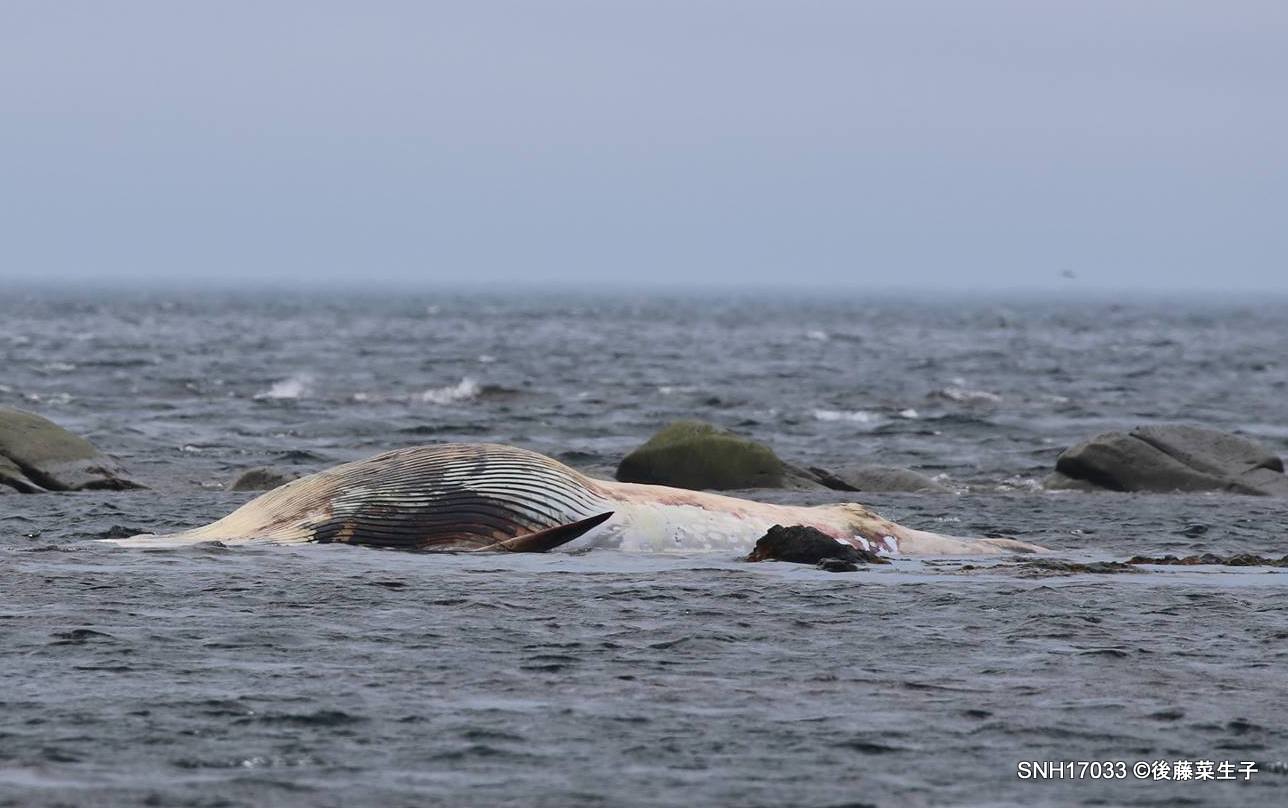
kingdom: Animalia
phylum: Chordata
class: Mammalia
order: Cetacea
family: Balaenopteridae
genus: Balaenoptera
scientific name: Balaenoptera acutorostrata
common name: Minke whale
